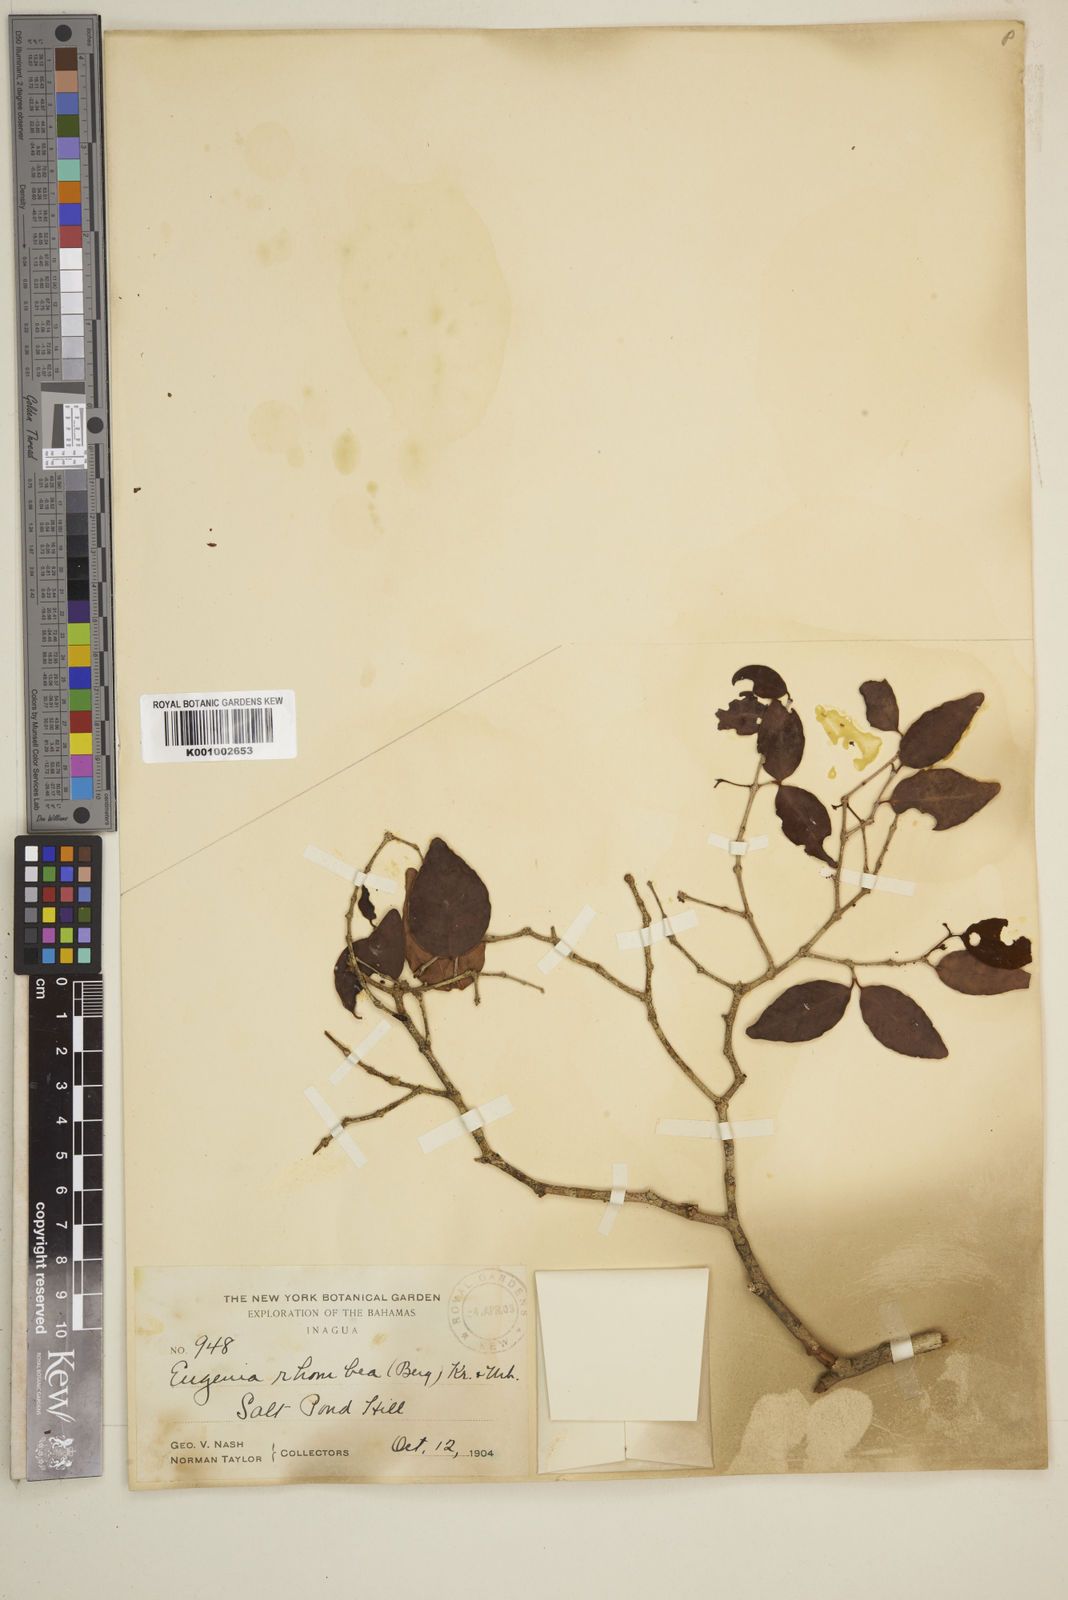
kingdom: Plantae
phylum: Tracheophyta
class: Magnoliopsida
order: Myrtales
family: Myrtaceae
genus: Eugenia
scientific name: Eugenia rhombea
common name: Pigeon berry
